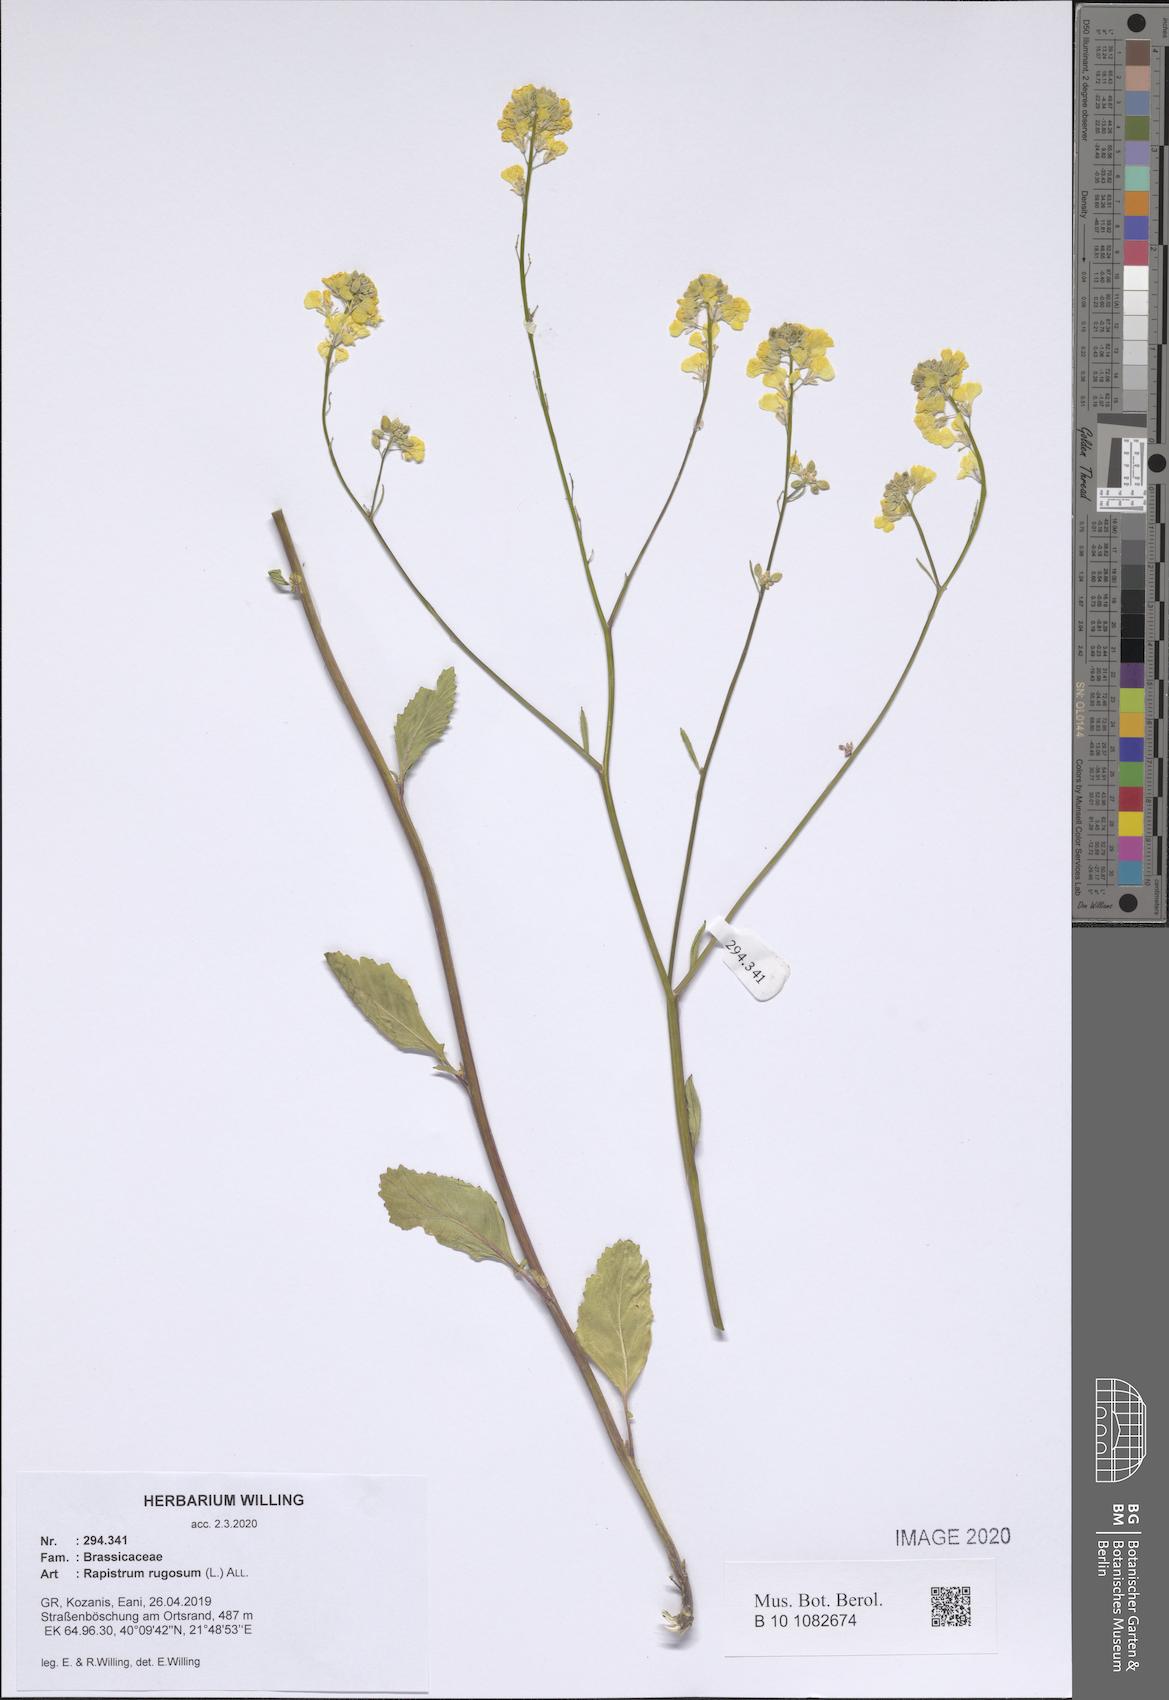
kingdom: Plantae
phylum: Tracheophyta
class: Magnoliopsida
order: Brassicales
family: Brassicaceae
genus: Rapistrum
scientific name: Rapistrum rugosum
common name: Annual bastardcabbage
